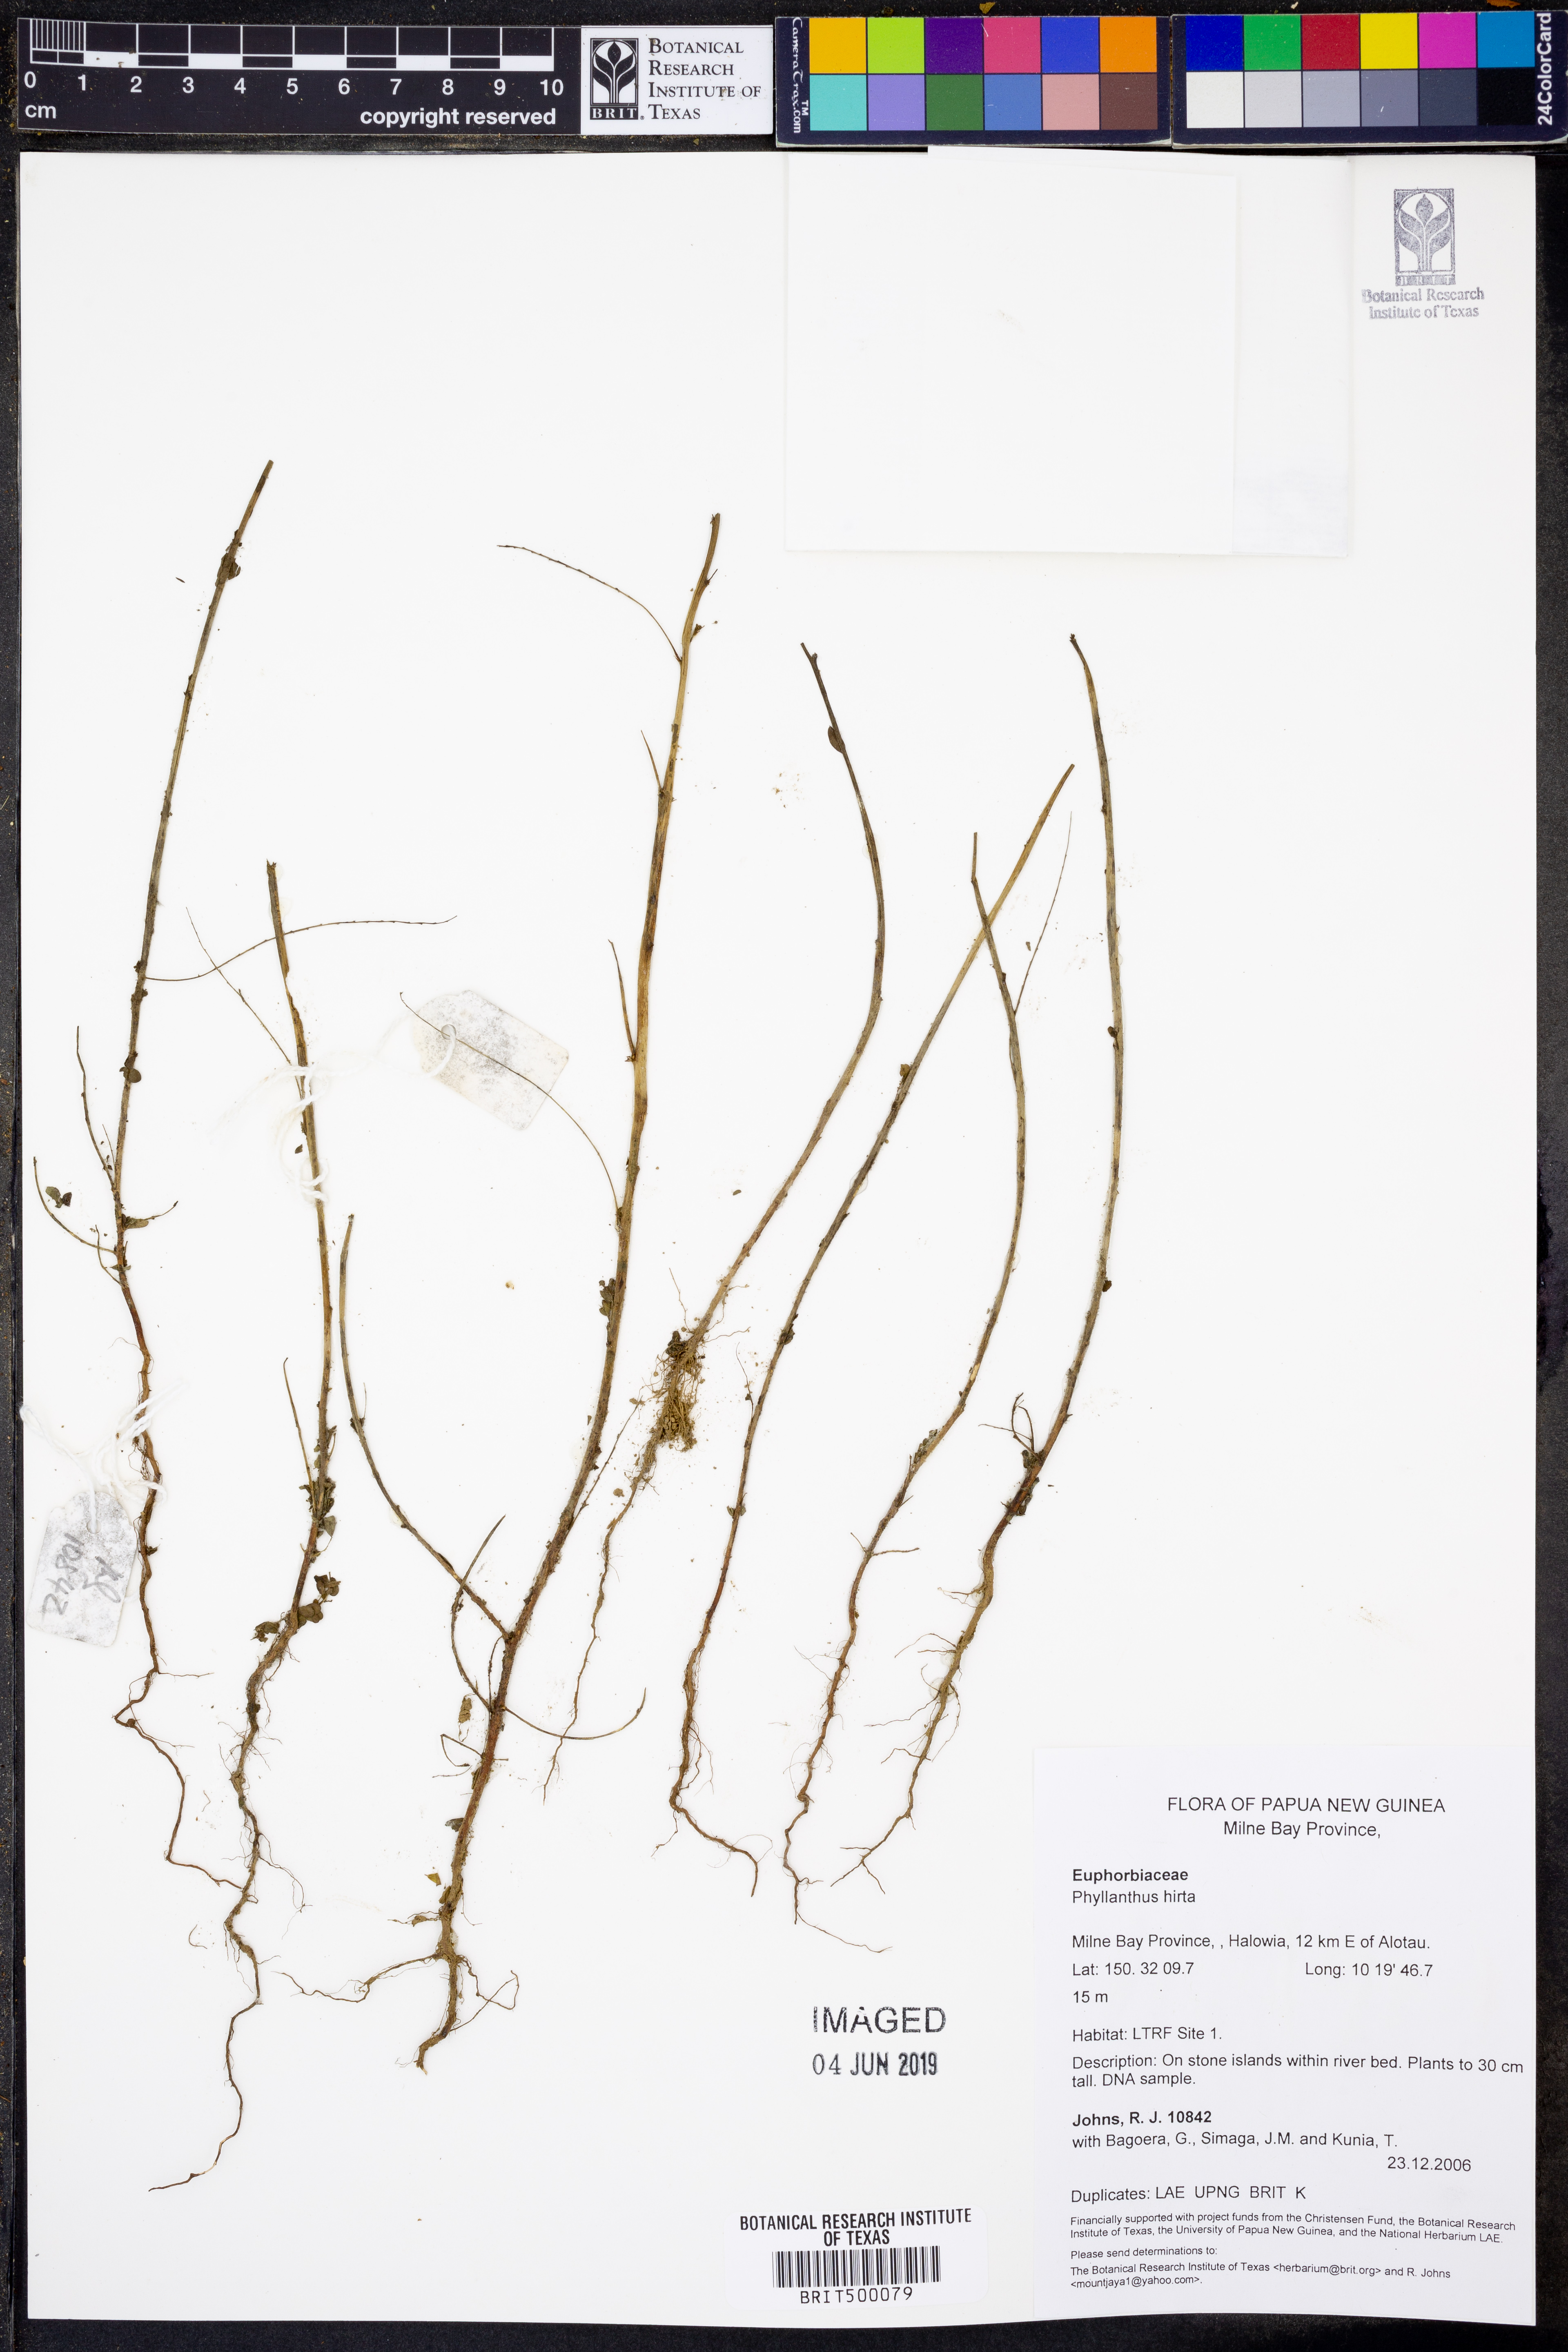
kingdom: Plantae
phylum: Tracheophyta
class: Magnoliopsida
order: Malpighiales
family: Phyllanthaceae
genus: Phyllanthus
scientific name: Phyllanthus hirtellus
